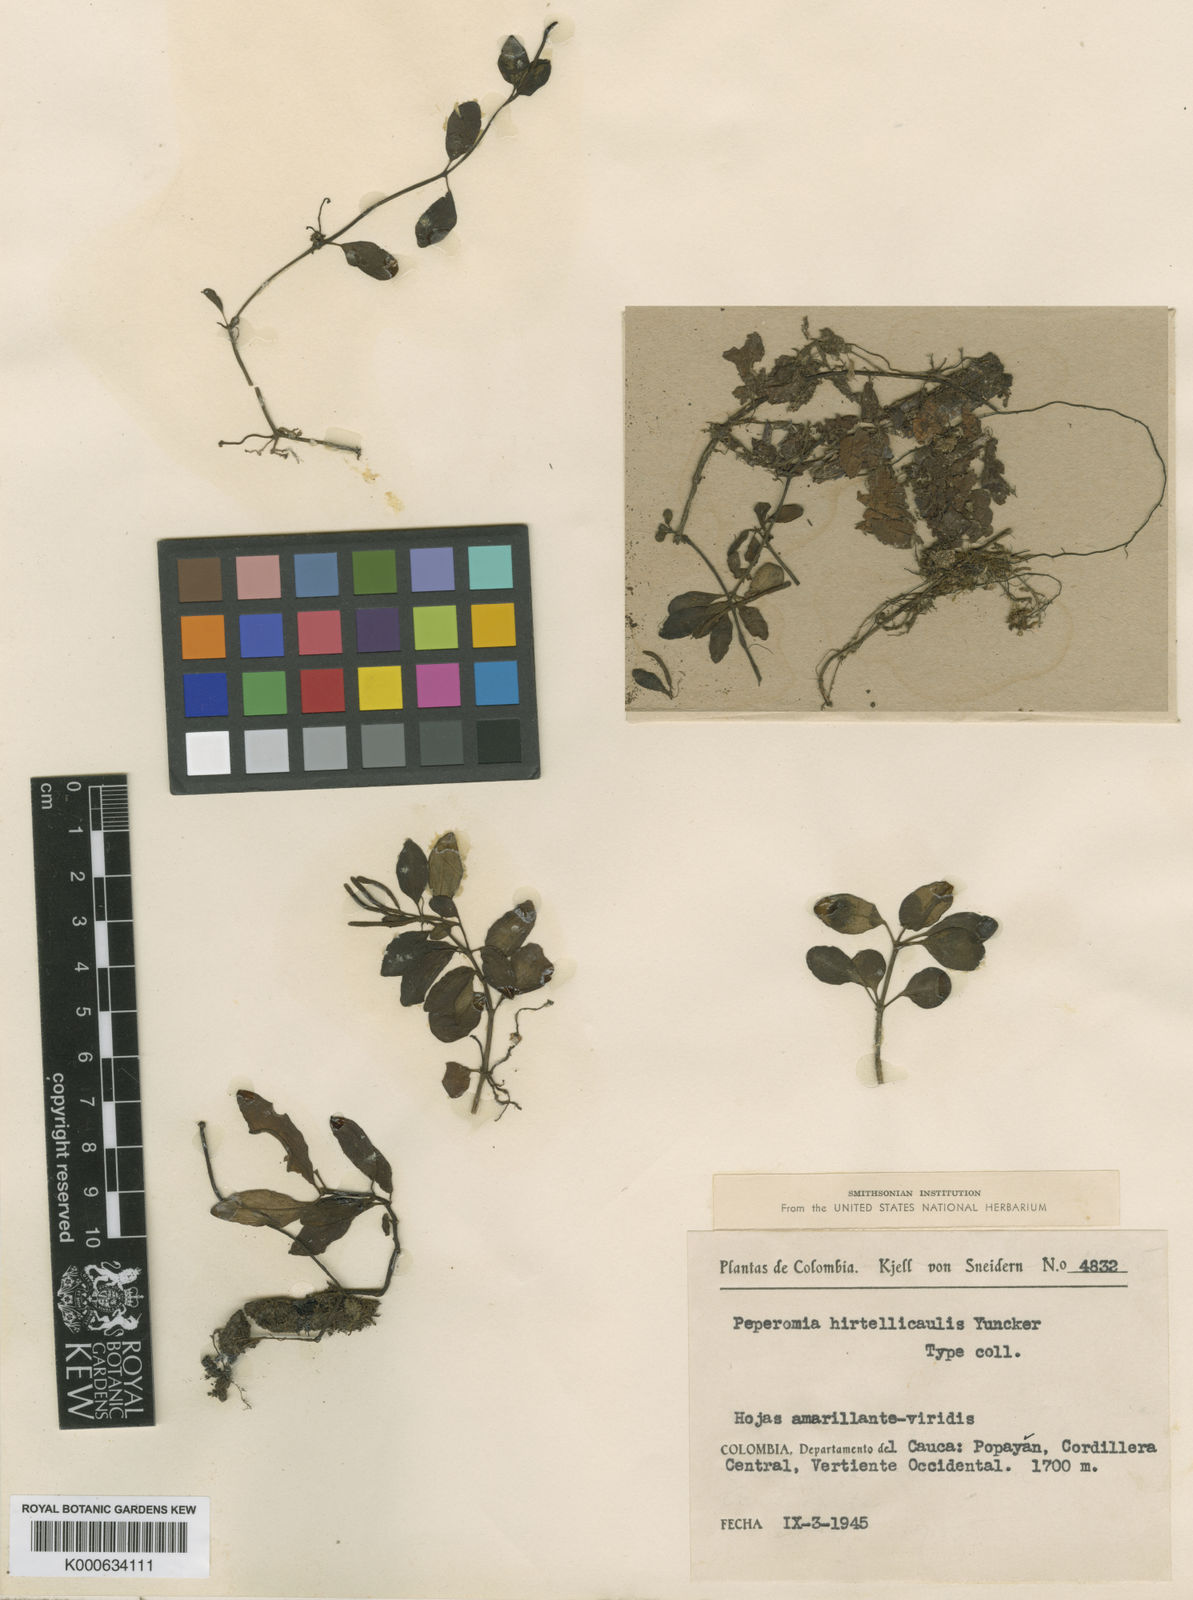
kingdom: Plantae
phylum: Tracheophyta
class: Magnoliopsida
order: Piperales
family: Piperaceae
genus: Peperomia
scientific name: Peperomia hirtellicaulis
